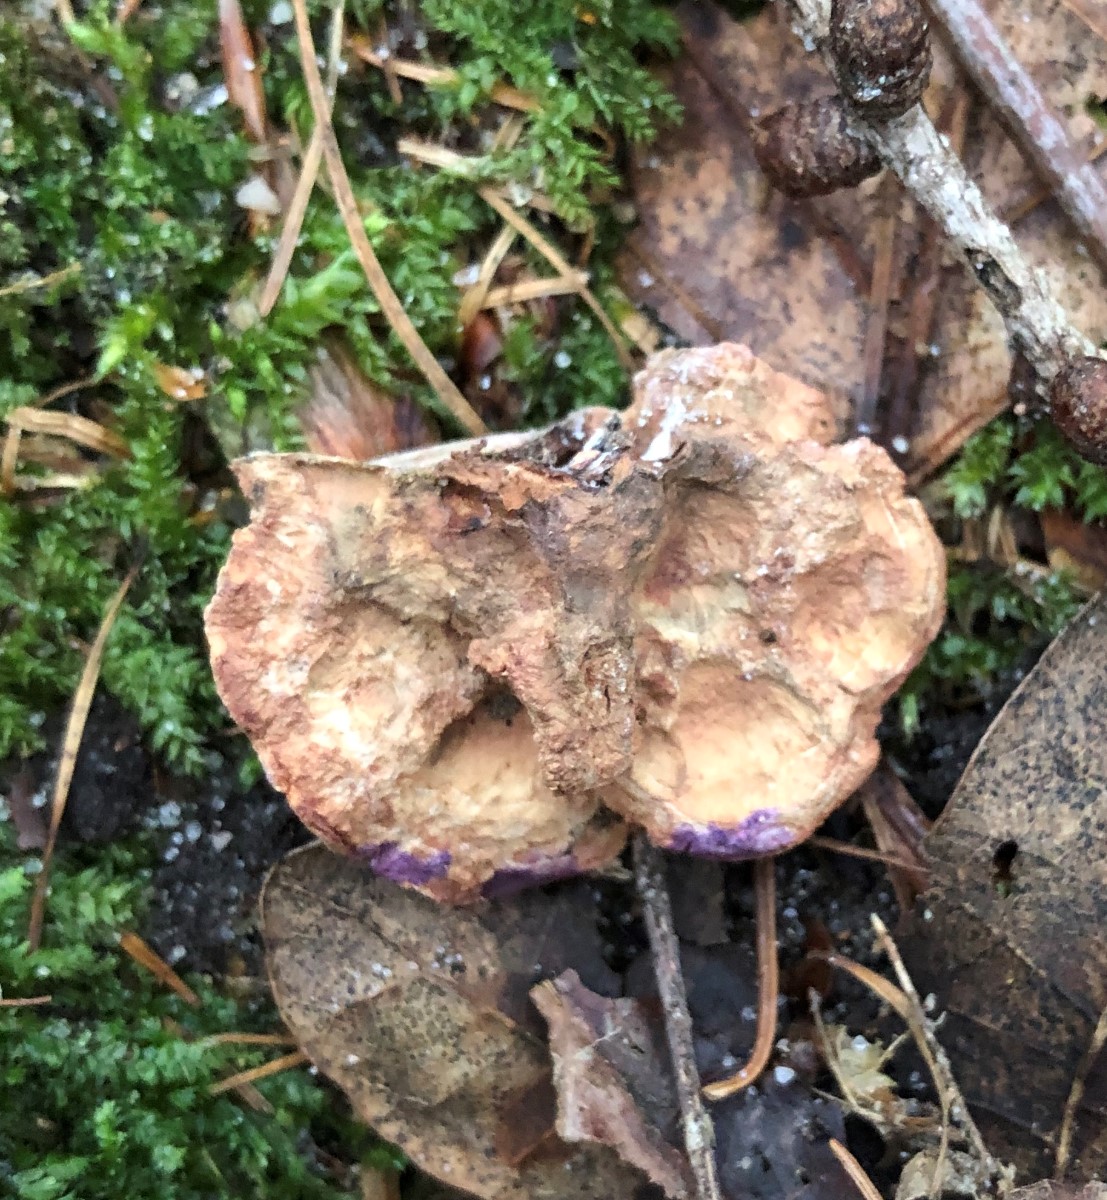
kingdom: Fungi
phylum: Basidiomycota
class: Agaricomycetes
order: Polyporales
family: Phanerochaetaceae
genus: Hapalopilus
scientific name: Hapalopilus rutilans
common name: rødlig okkerporesvamp
